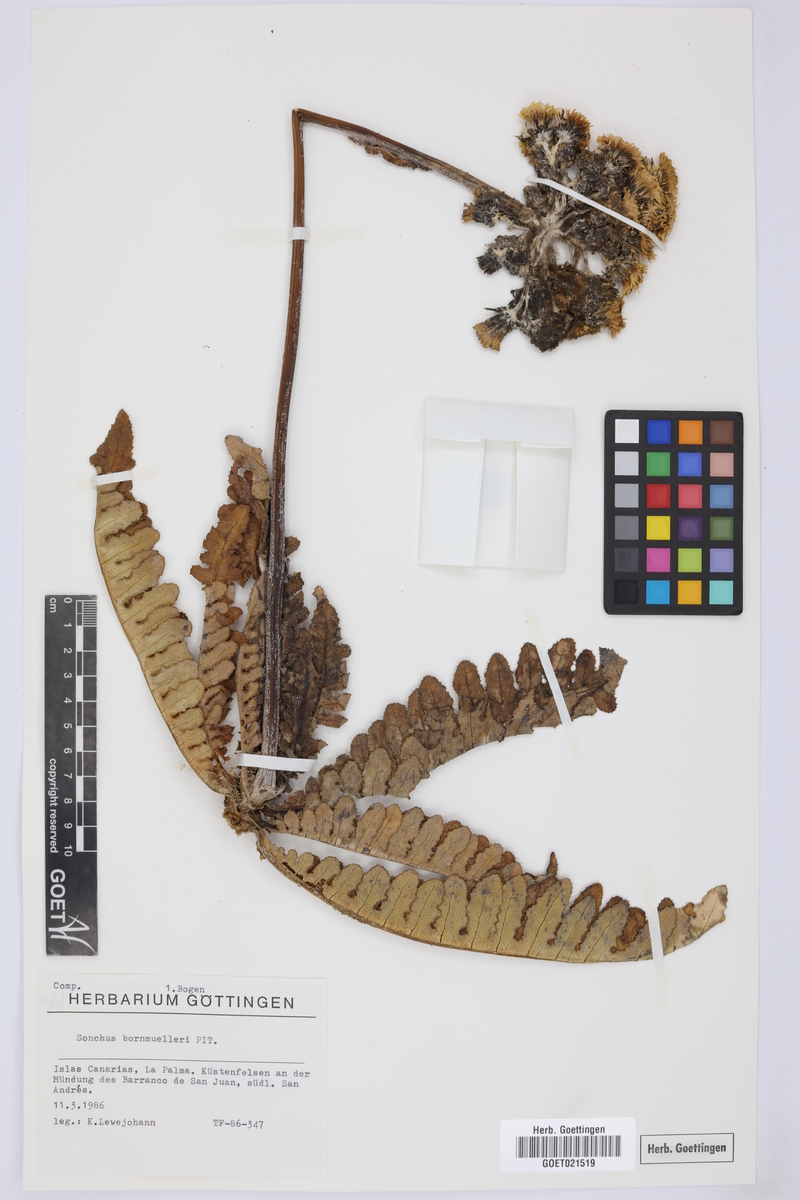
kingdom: Plantae
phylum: Tracheophyta
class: Magnoliopsida
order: Asterales
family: Asteraceae
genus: Sonchus
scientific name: Sonchus bornmuelleri
